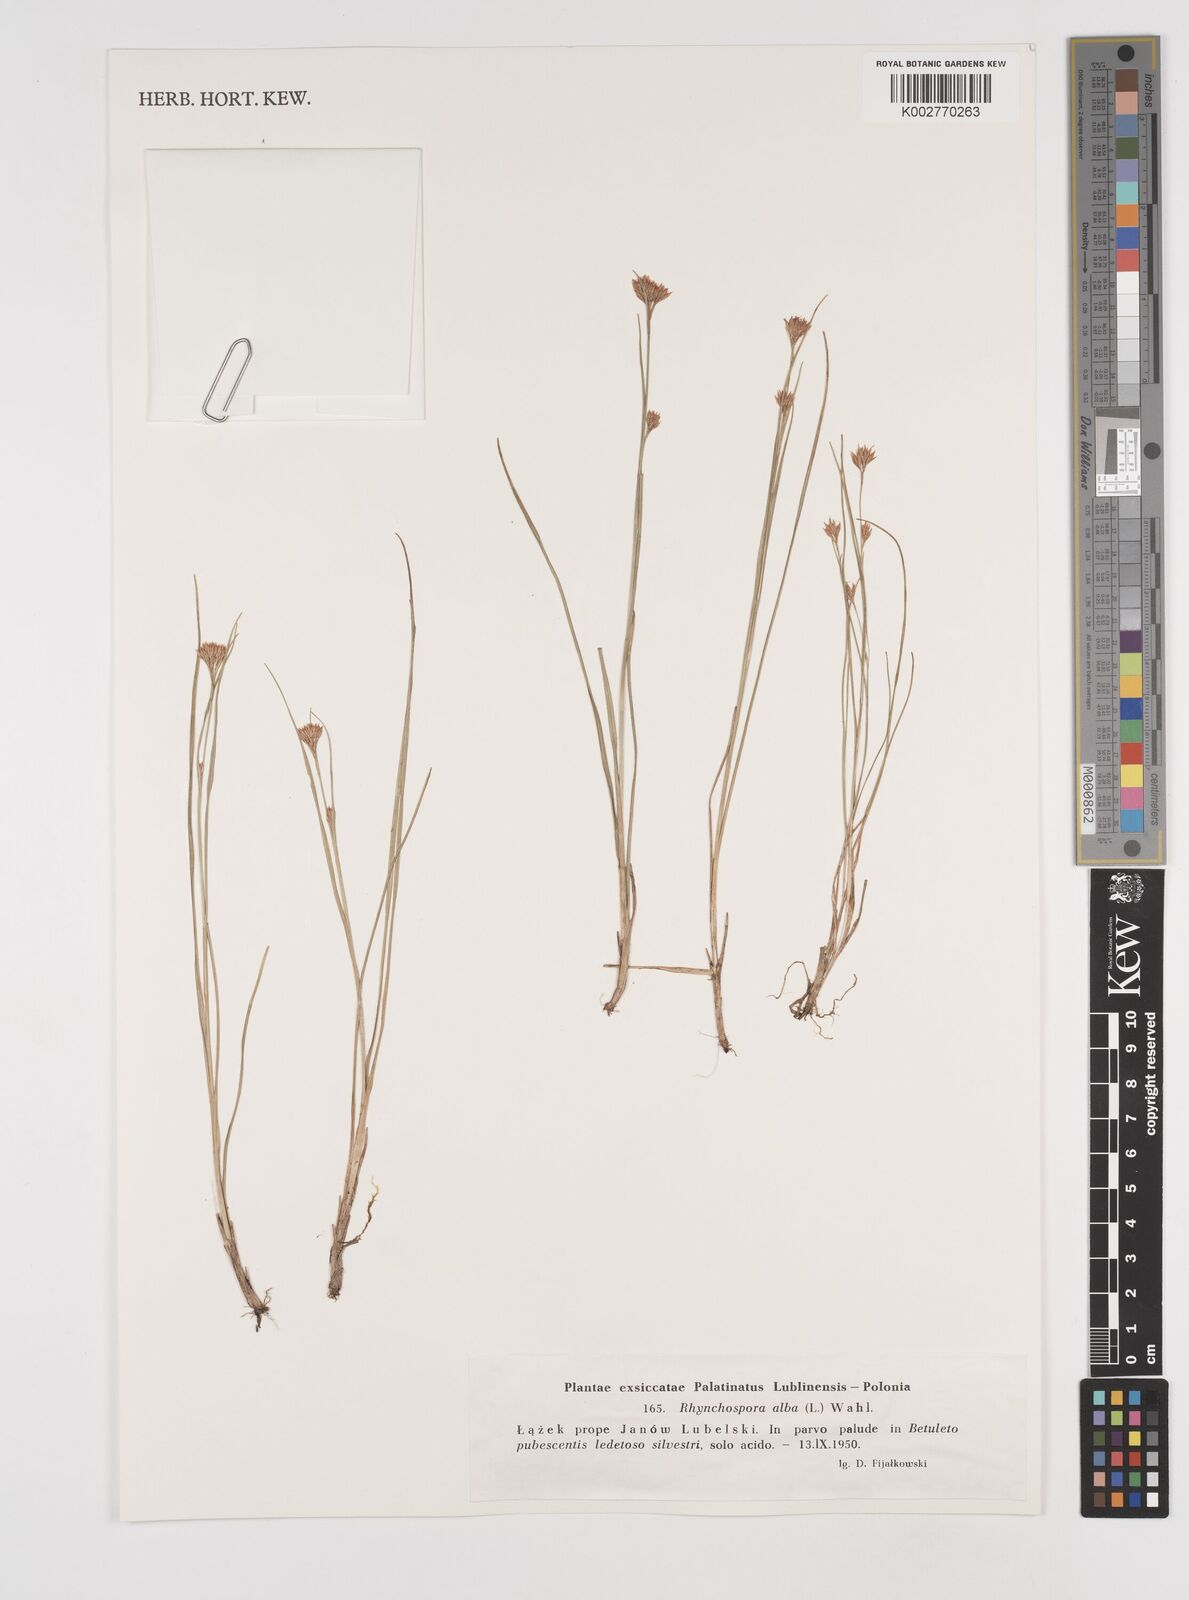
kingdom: Plantae
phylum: Tracheophyta
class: Liliopsida
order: Poales
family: Cyperaceae
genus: Rhynchospora
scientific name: Rhynchospora alba
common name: White beak-sedge
